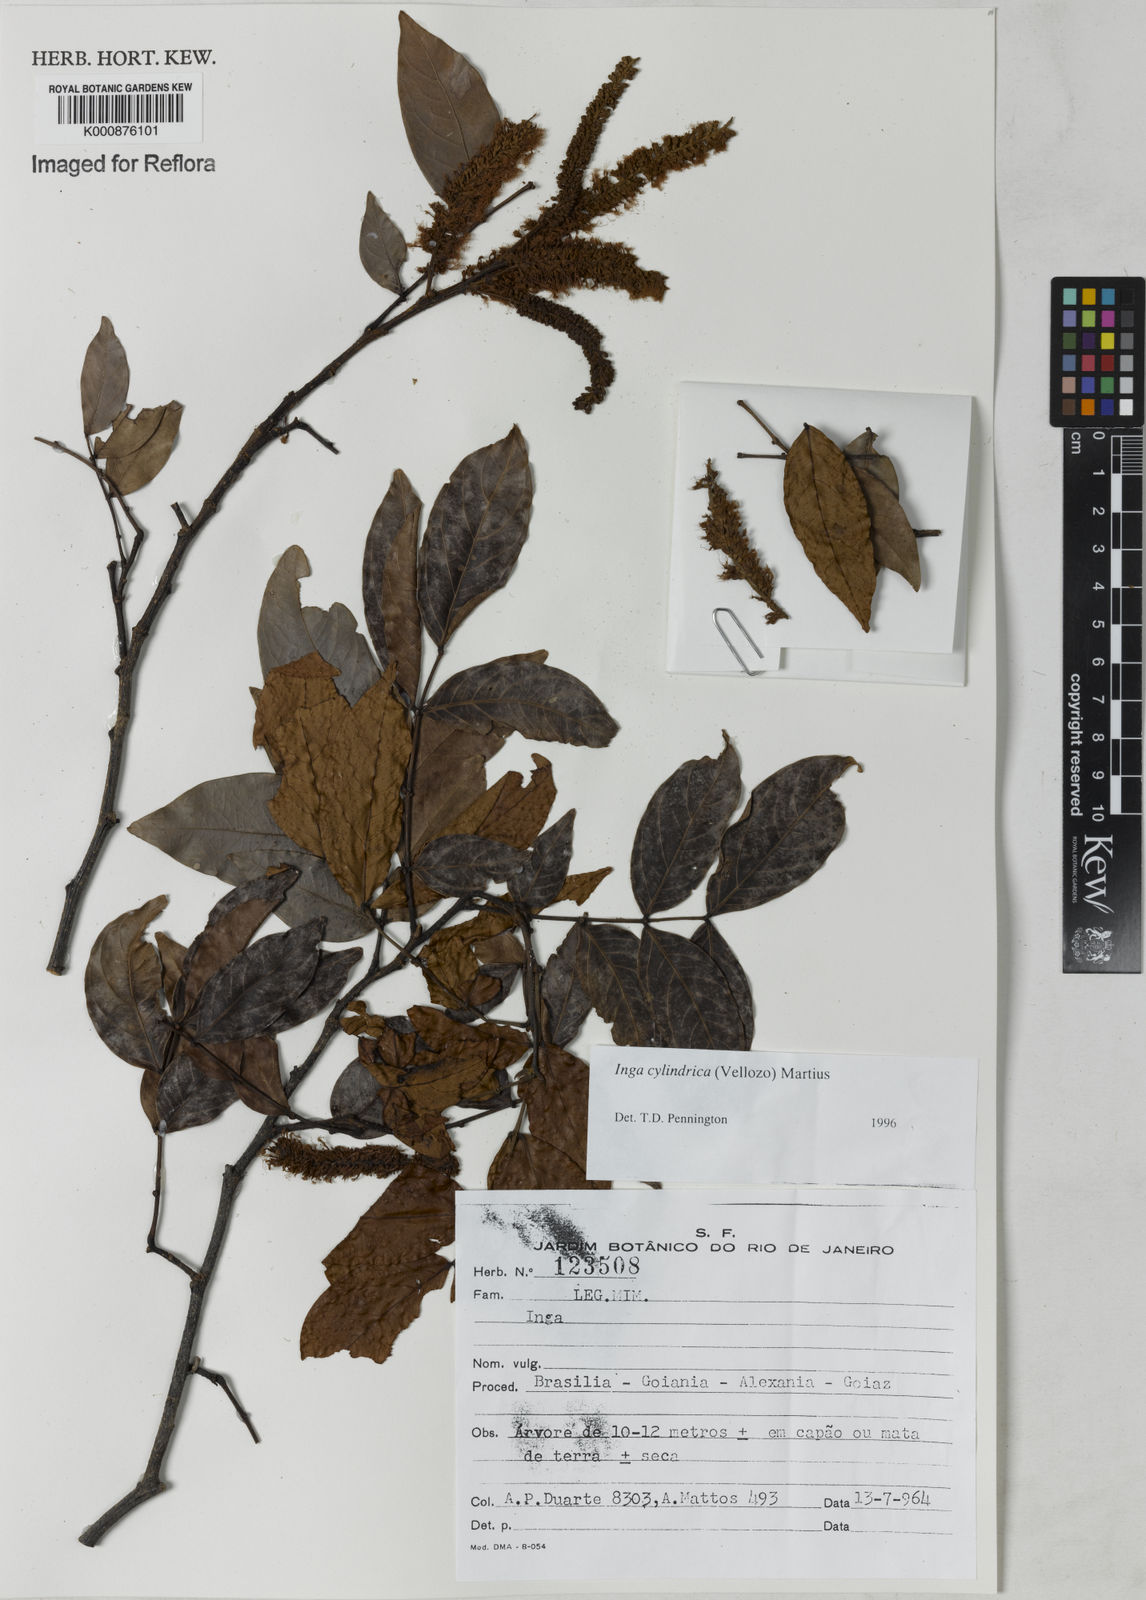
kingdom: Plantae
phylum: Tracheophyta
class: Magnoliopsida
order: Fabales
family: Fabaceae
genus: Inga
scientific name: Inga cylindrica
